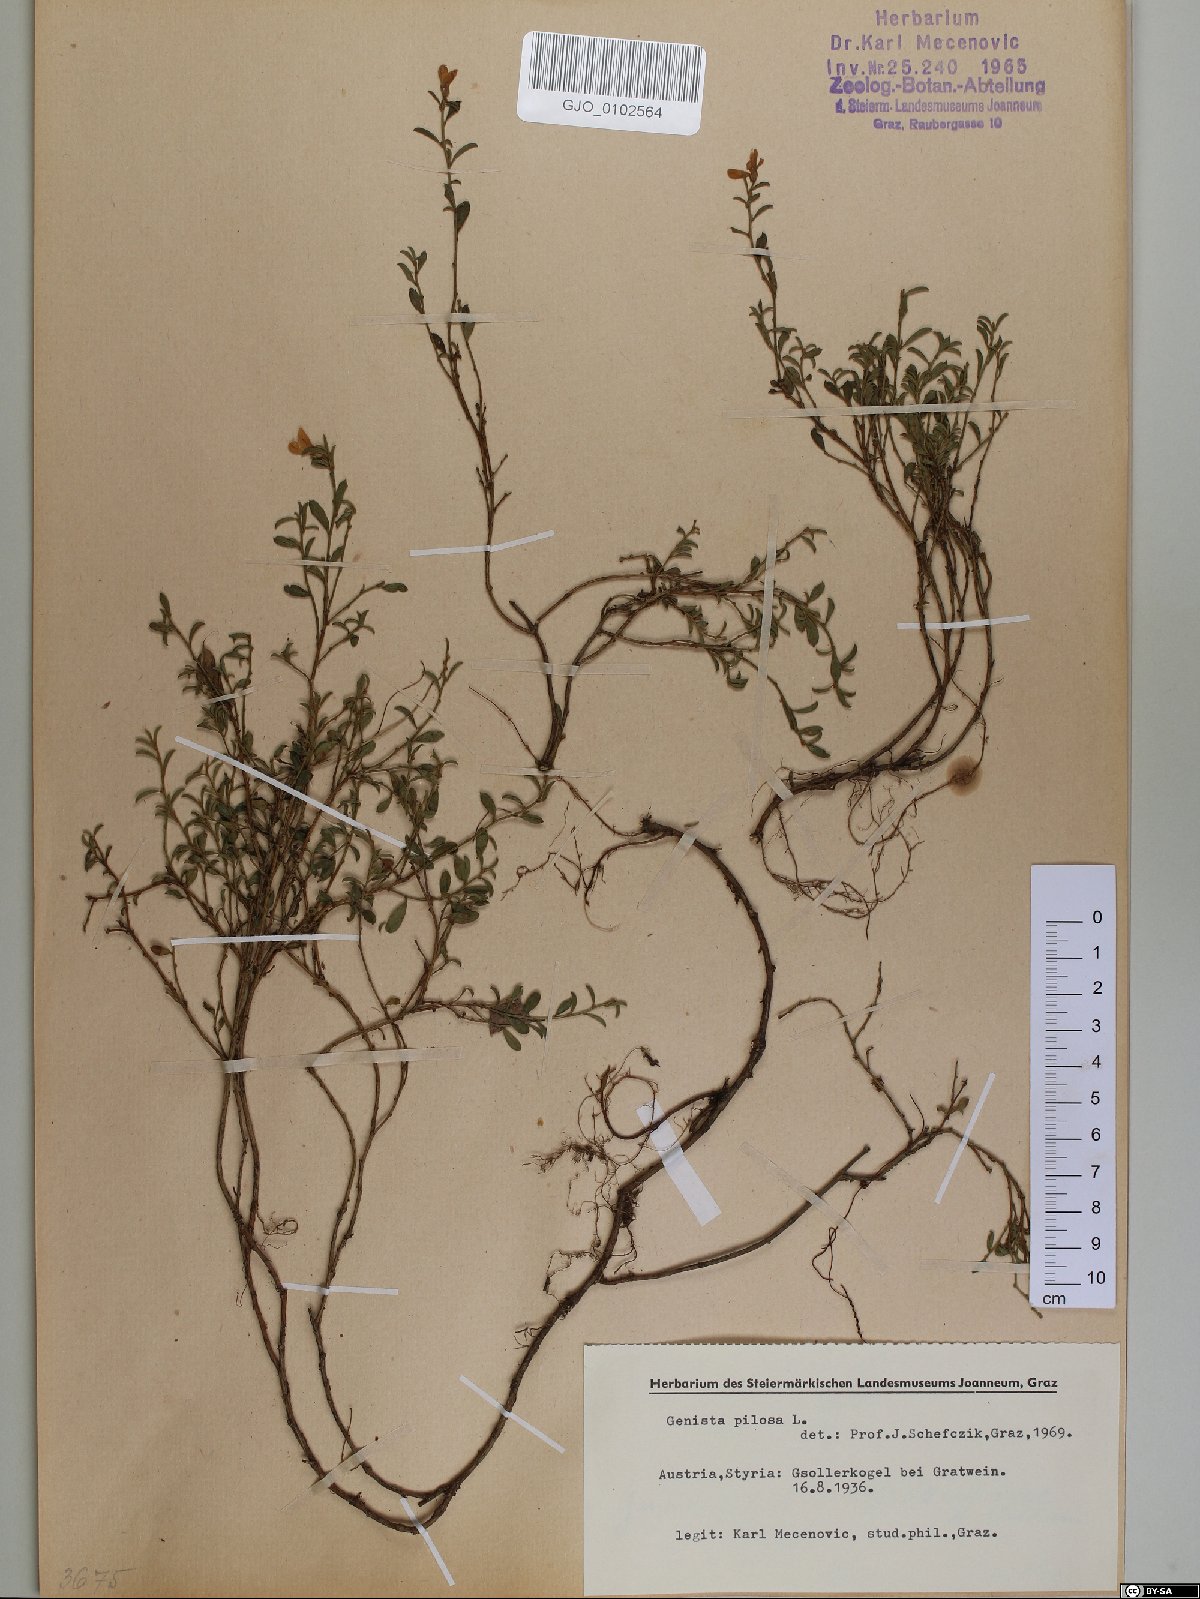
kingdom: Plantae
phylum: Tracheophyta
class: Magnoliopsida
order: Fabales
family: Fabaceae
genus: Genista
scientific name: Genista pilosa
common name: Hairy greenweed
